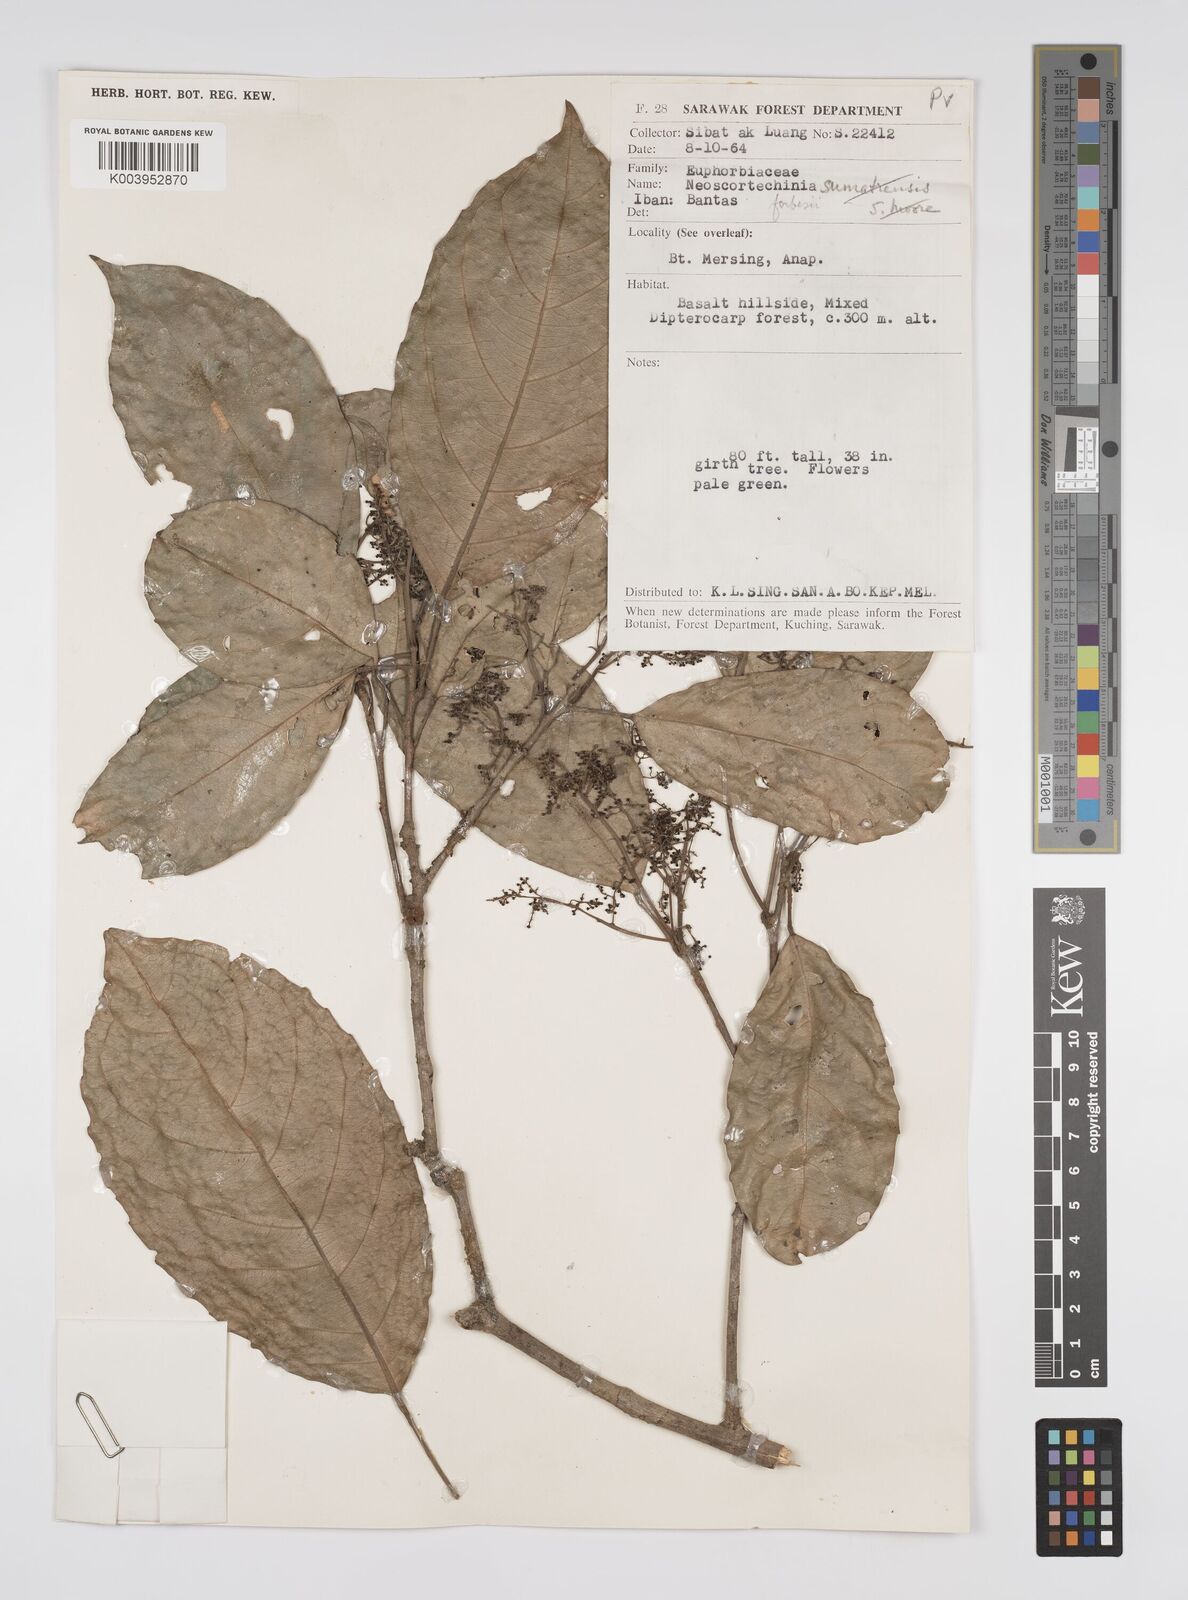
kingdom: Plantae
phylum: Tracheophyta
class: Magnoliopsida
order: Malpighiales
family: Euphorbiaceae
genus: Neoscortechinia
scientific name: Neoscortechinia philippinensis
